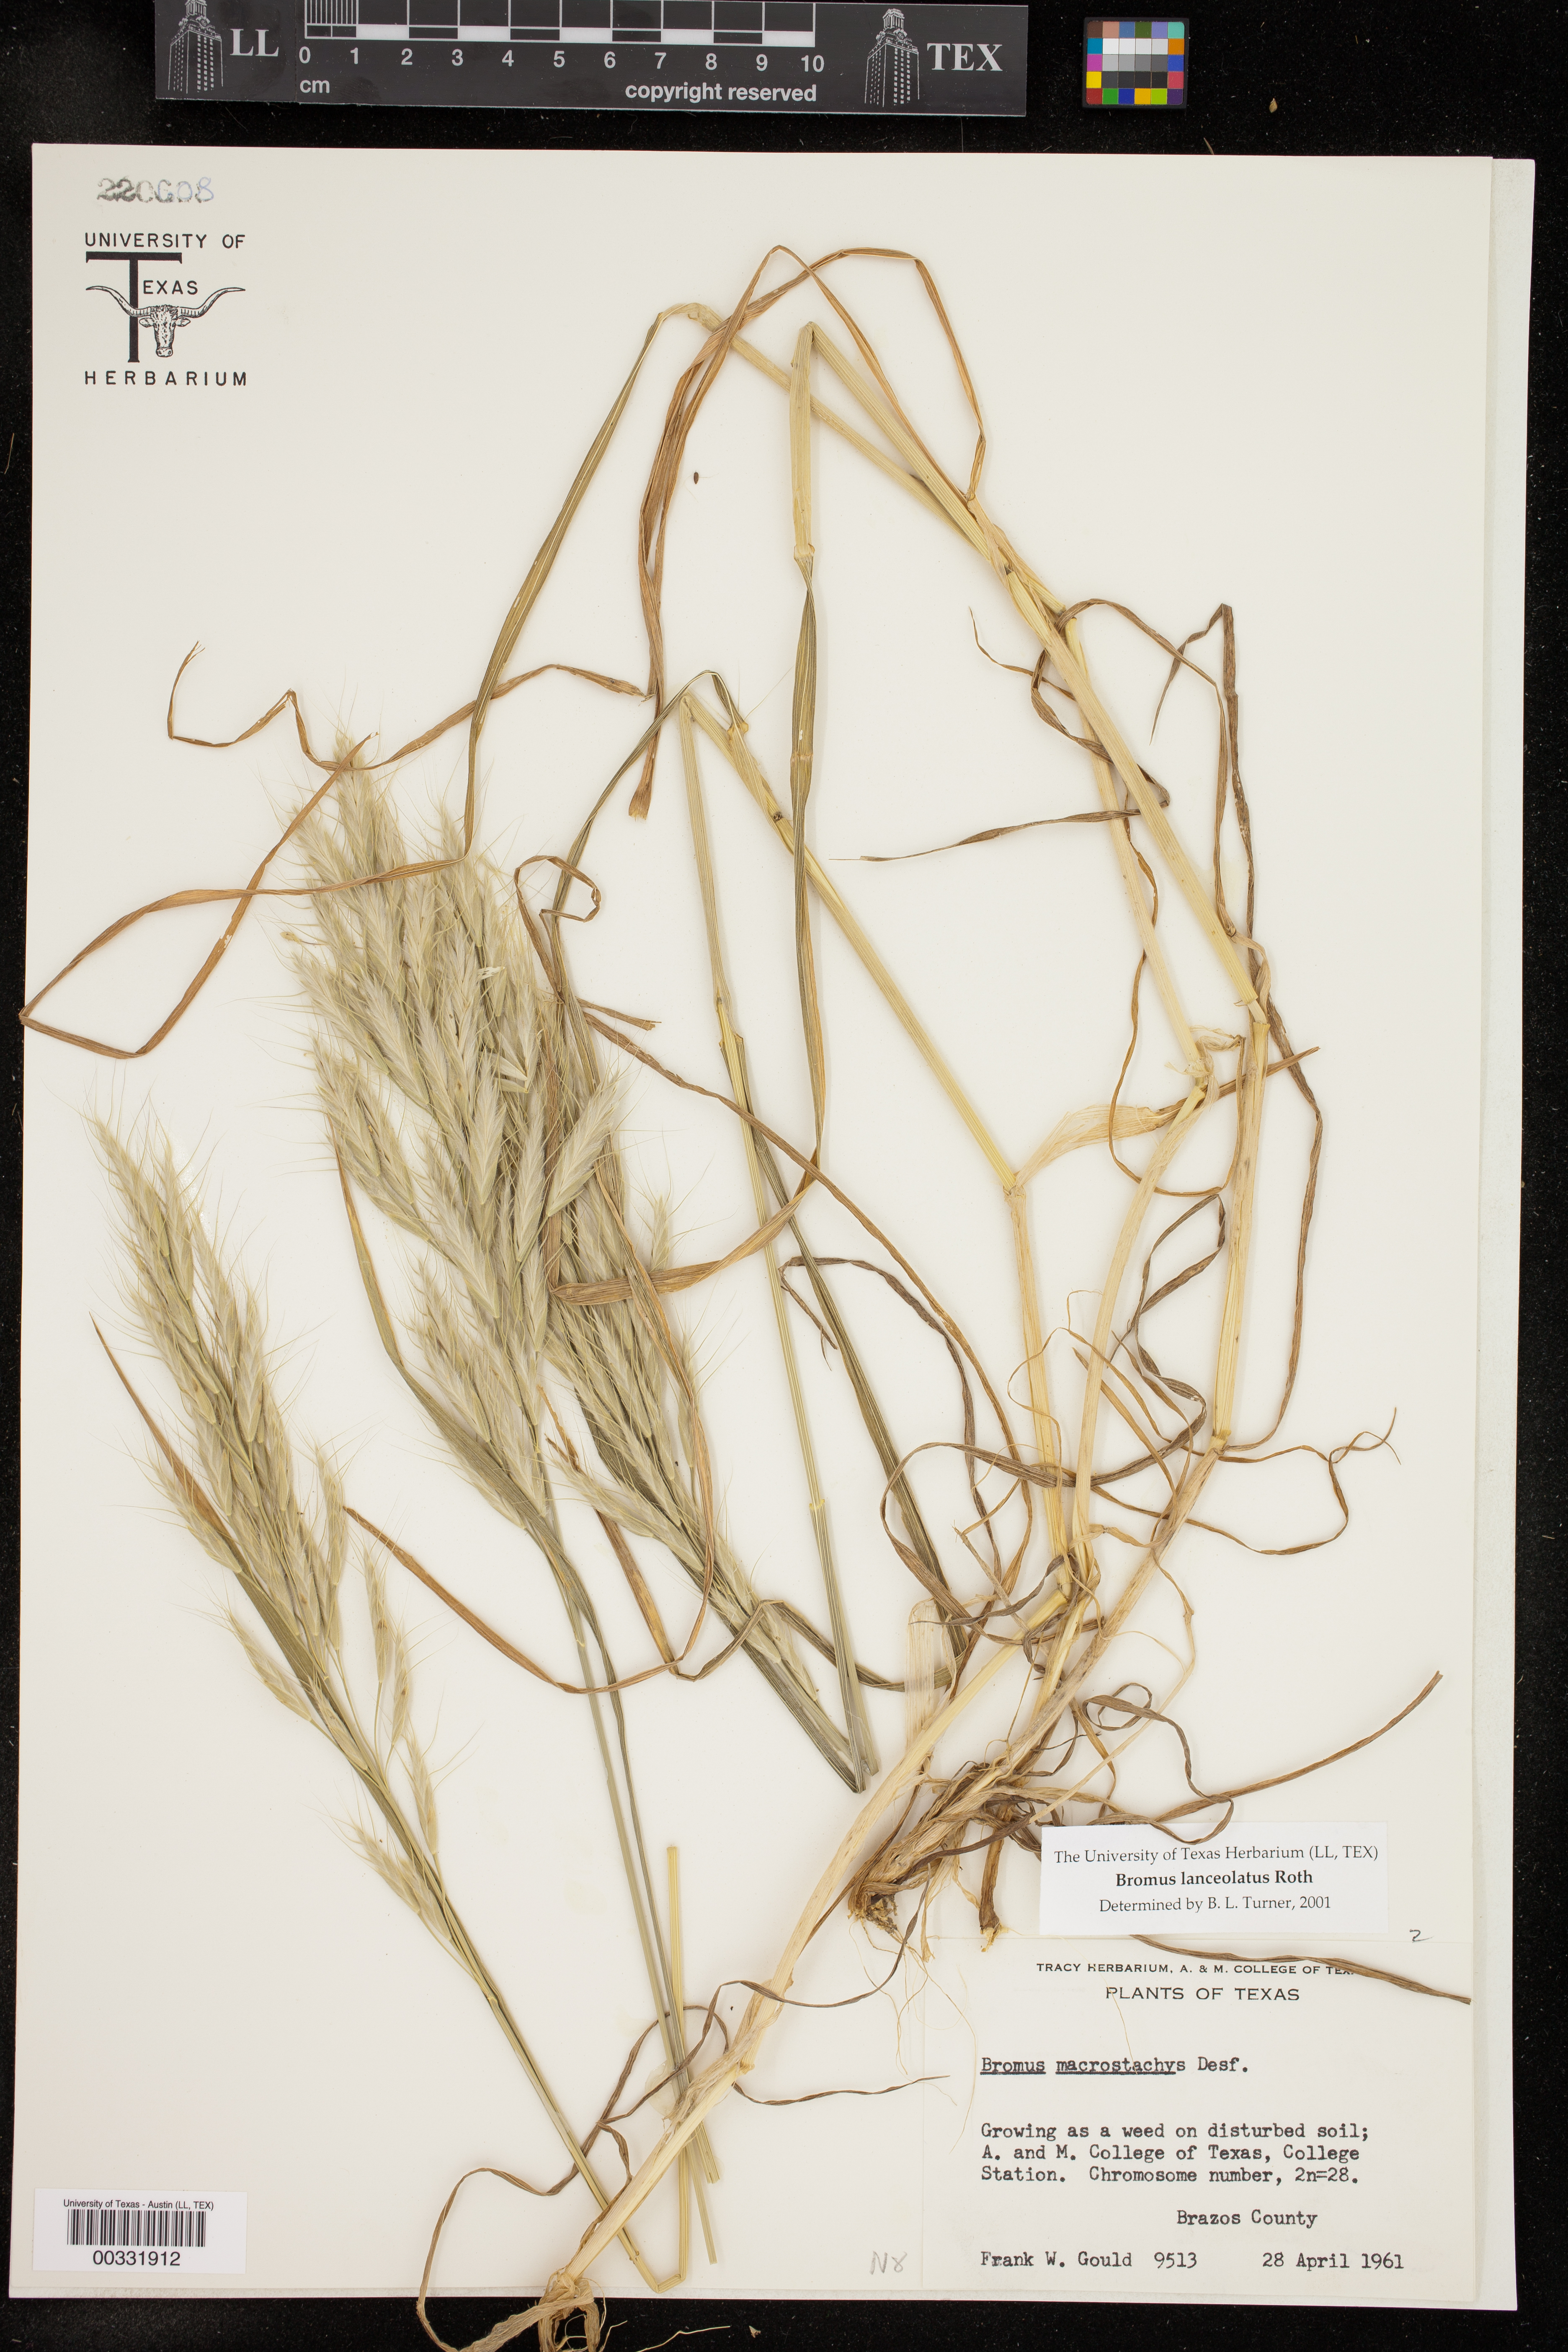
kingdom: Plantae
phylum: Tracheophyta
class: Liliopsida
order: Poales
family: Poaceae
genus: Bromus
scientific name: Bromus lanceolatus
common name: Mediterranean brome
